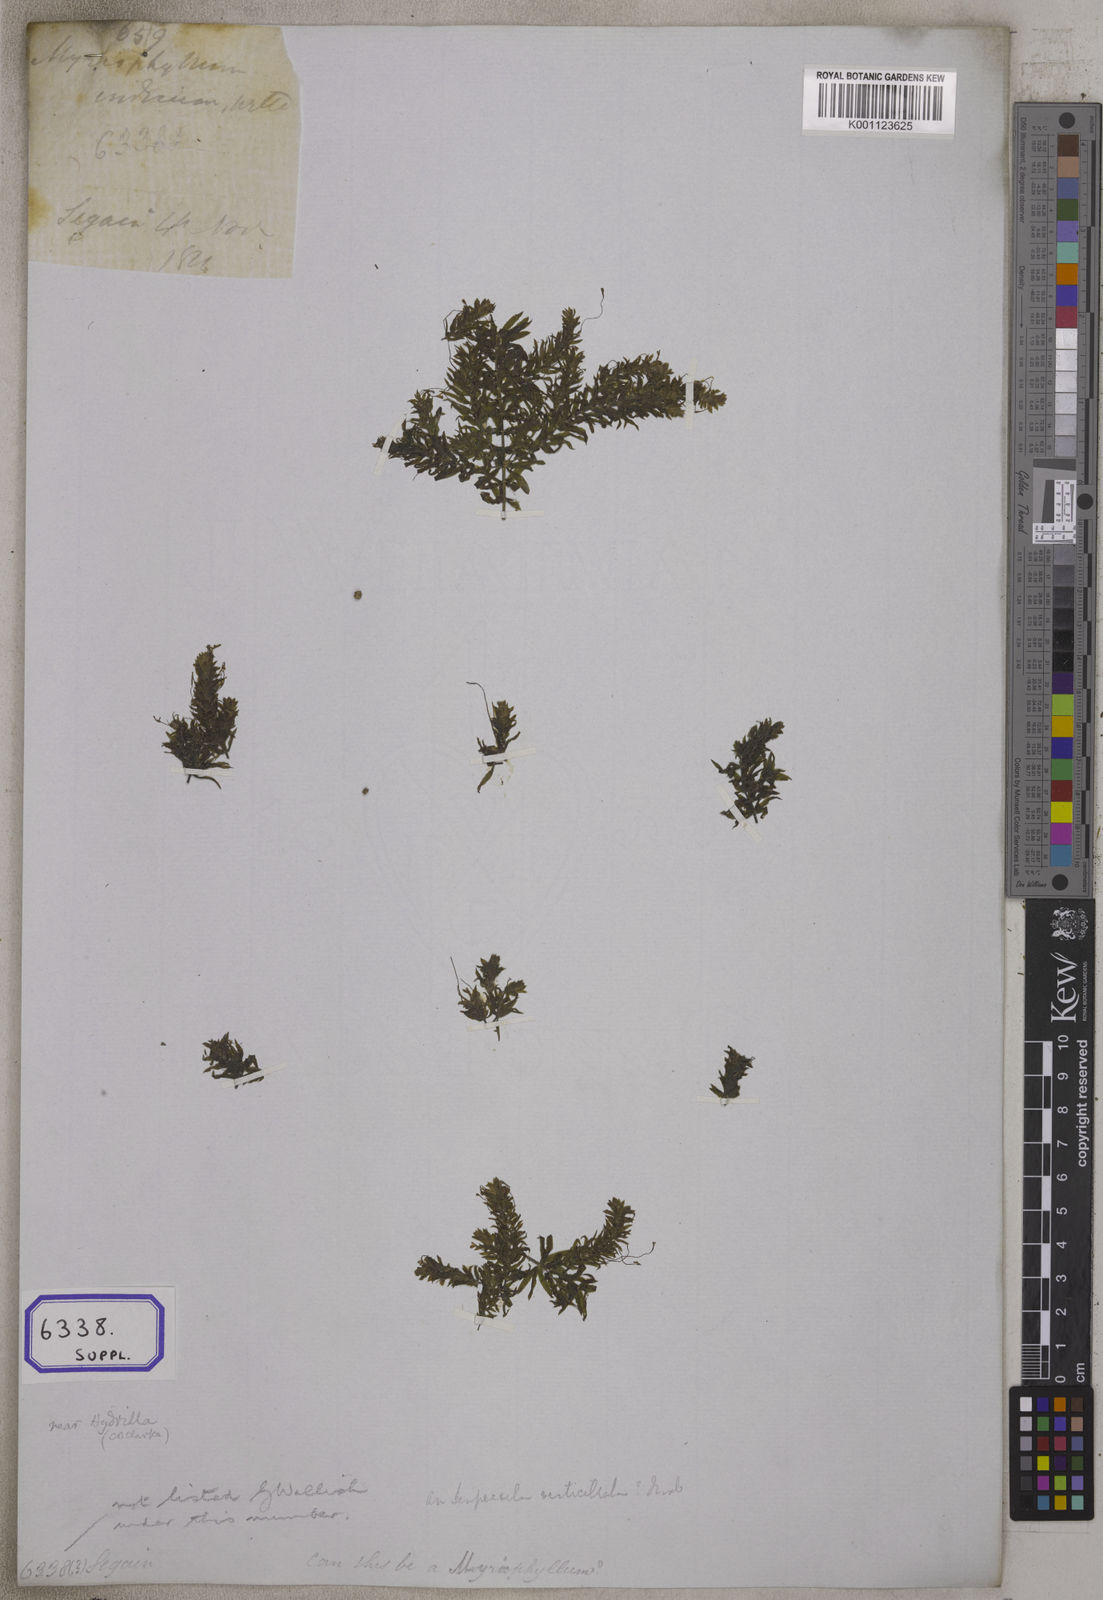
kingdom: Plantae
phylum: Tracheophyta
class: Magnoliopsida
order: Saxifragales
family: Haloragaceae
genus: Myriophyllum
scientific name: Myriophyllum indicum
